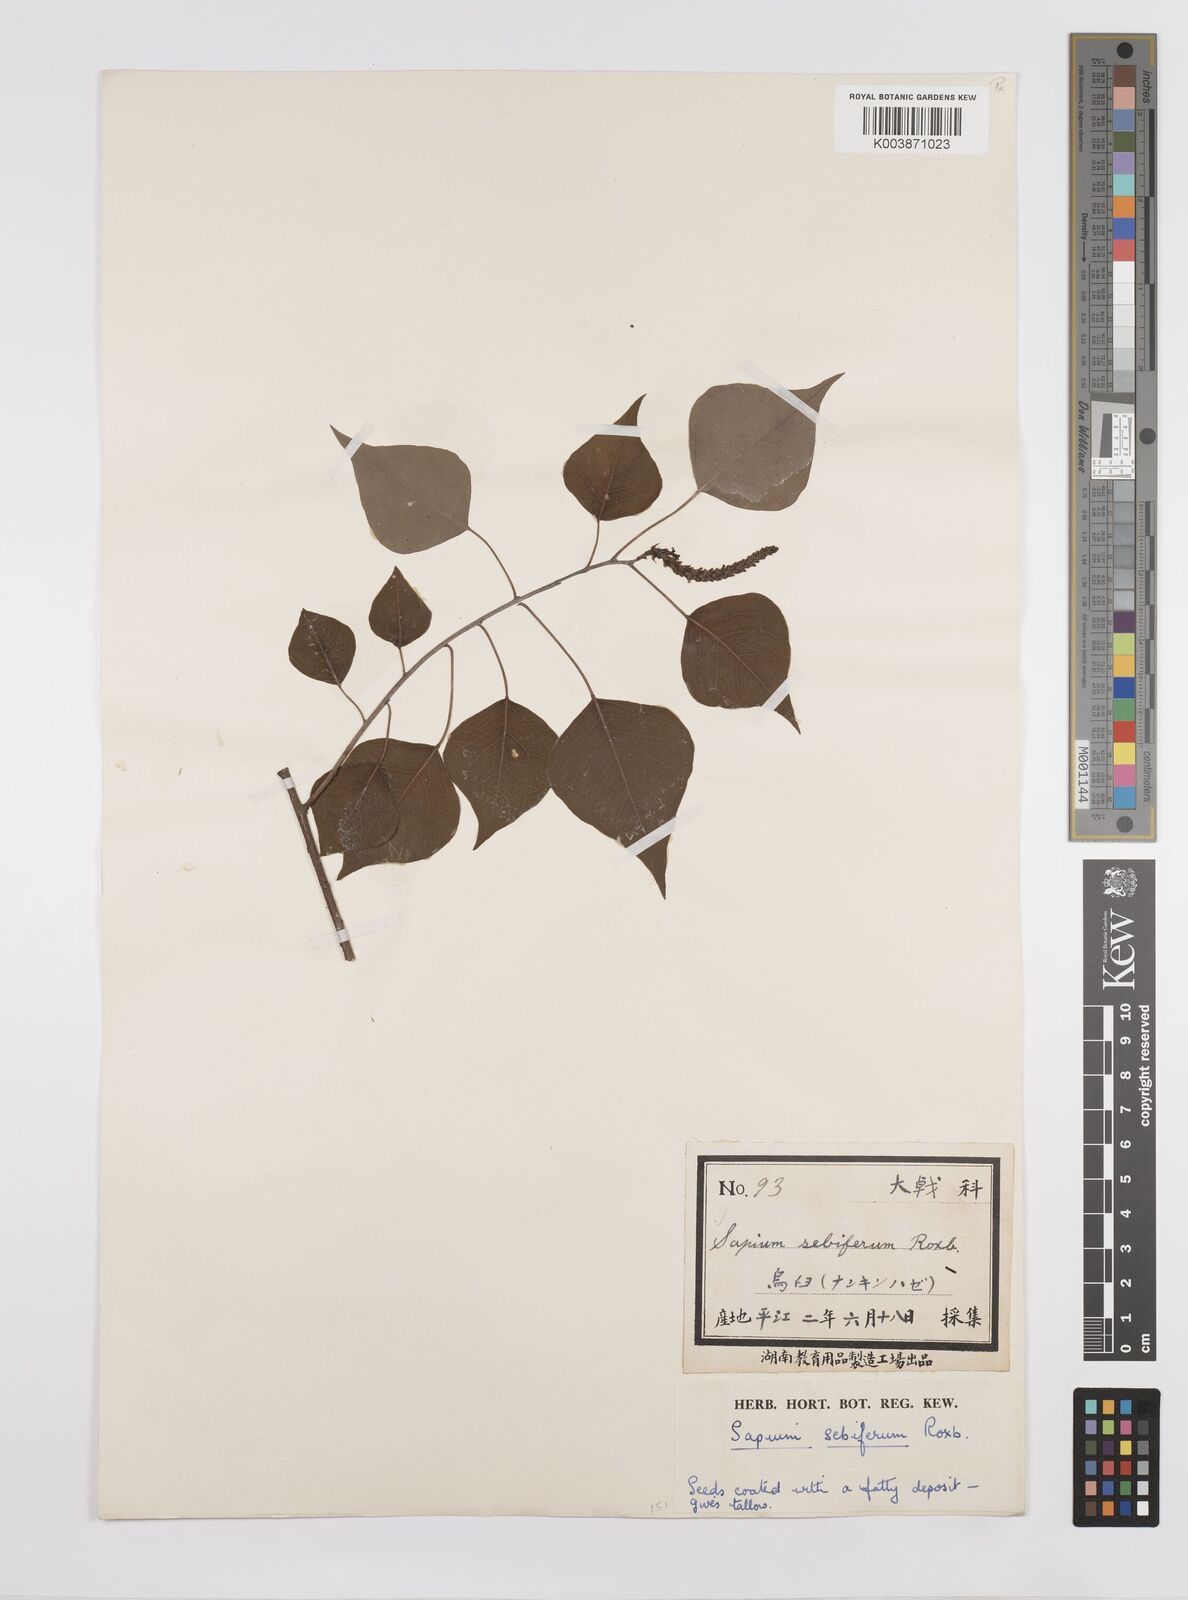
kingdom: Plantae
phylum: Tracheophyta
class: Magnoliopsida
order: Malpighiales
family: Euphorbiaceae
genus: Triadica
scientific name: Triadica sebifera
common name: Chinese tallow
